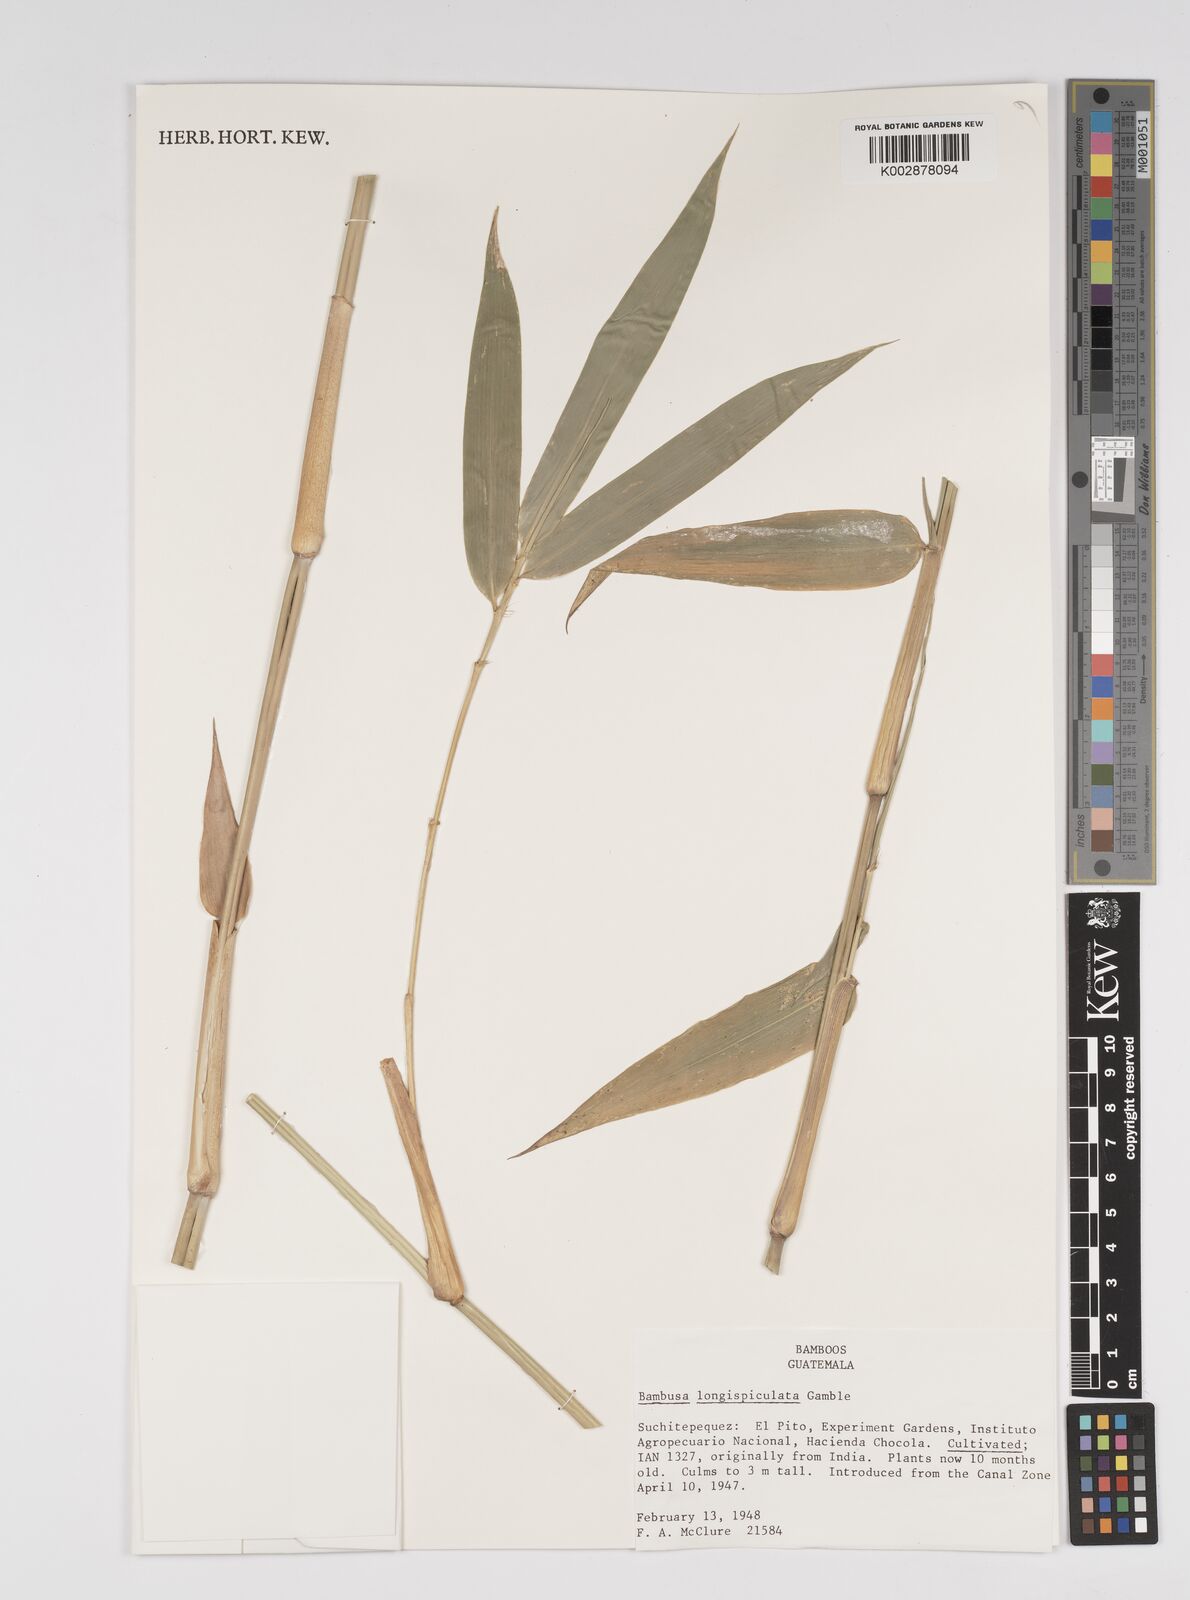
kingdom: Plantae
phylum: Tracheophyta
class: Liliopsida
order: Poales
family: Poaceae
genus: Bambusa
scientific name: Bambusa longispiculata
